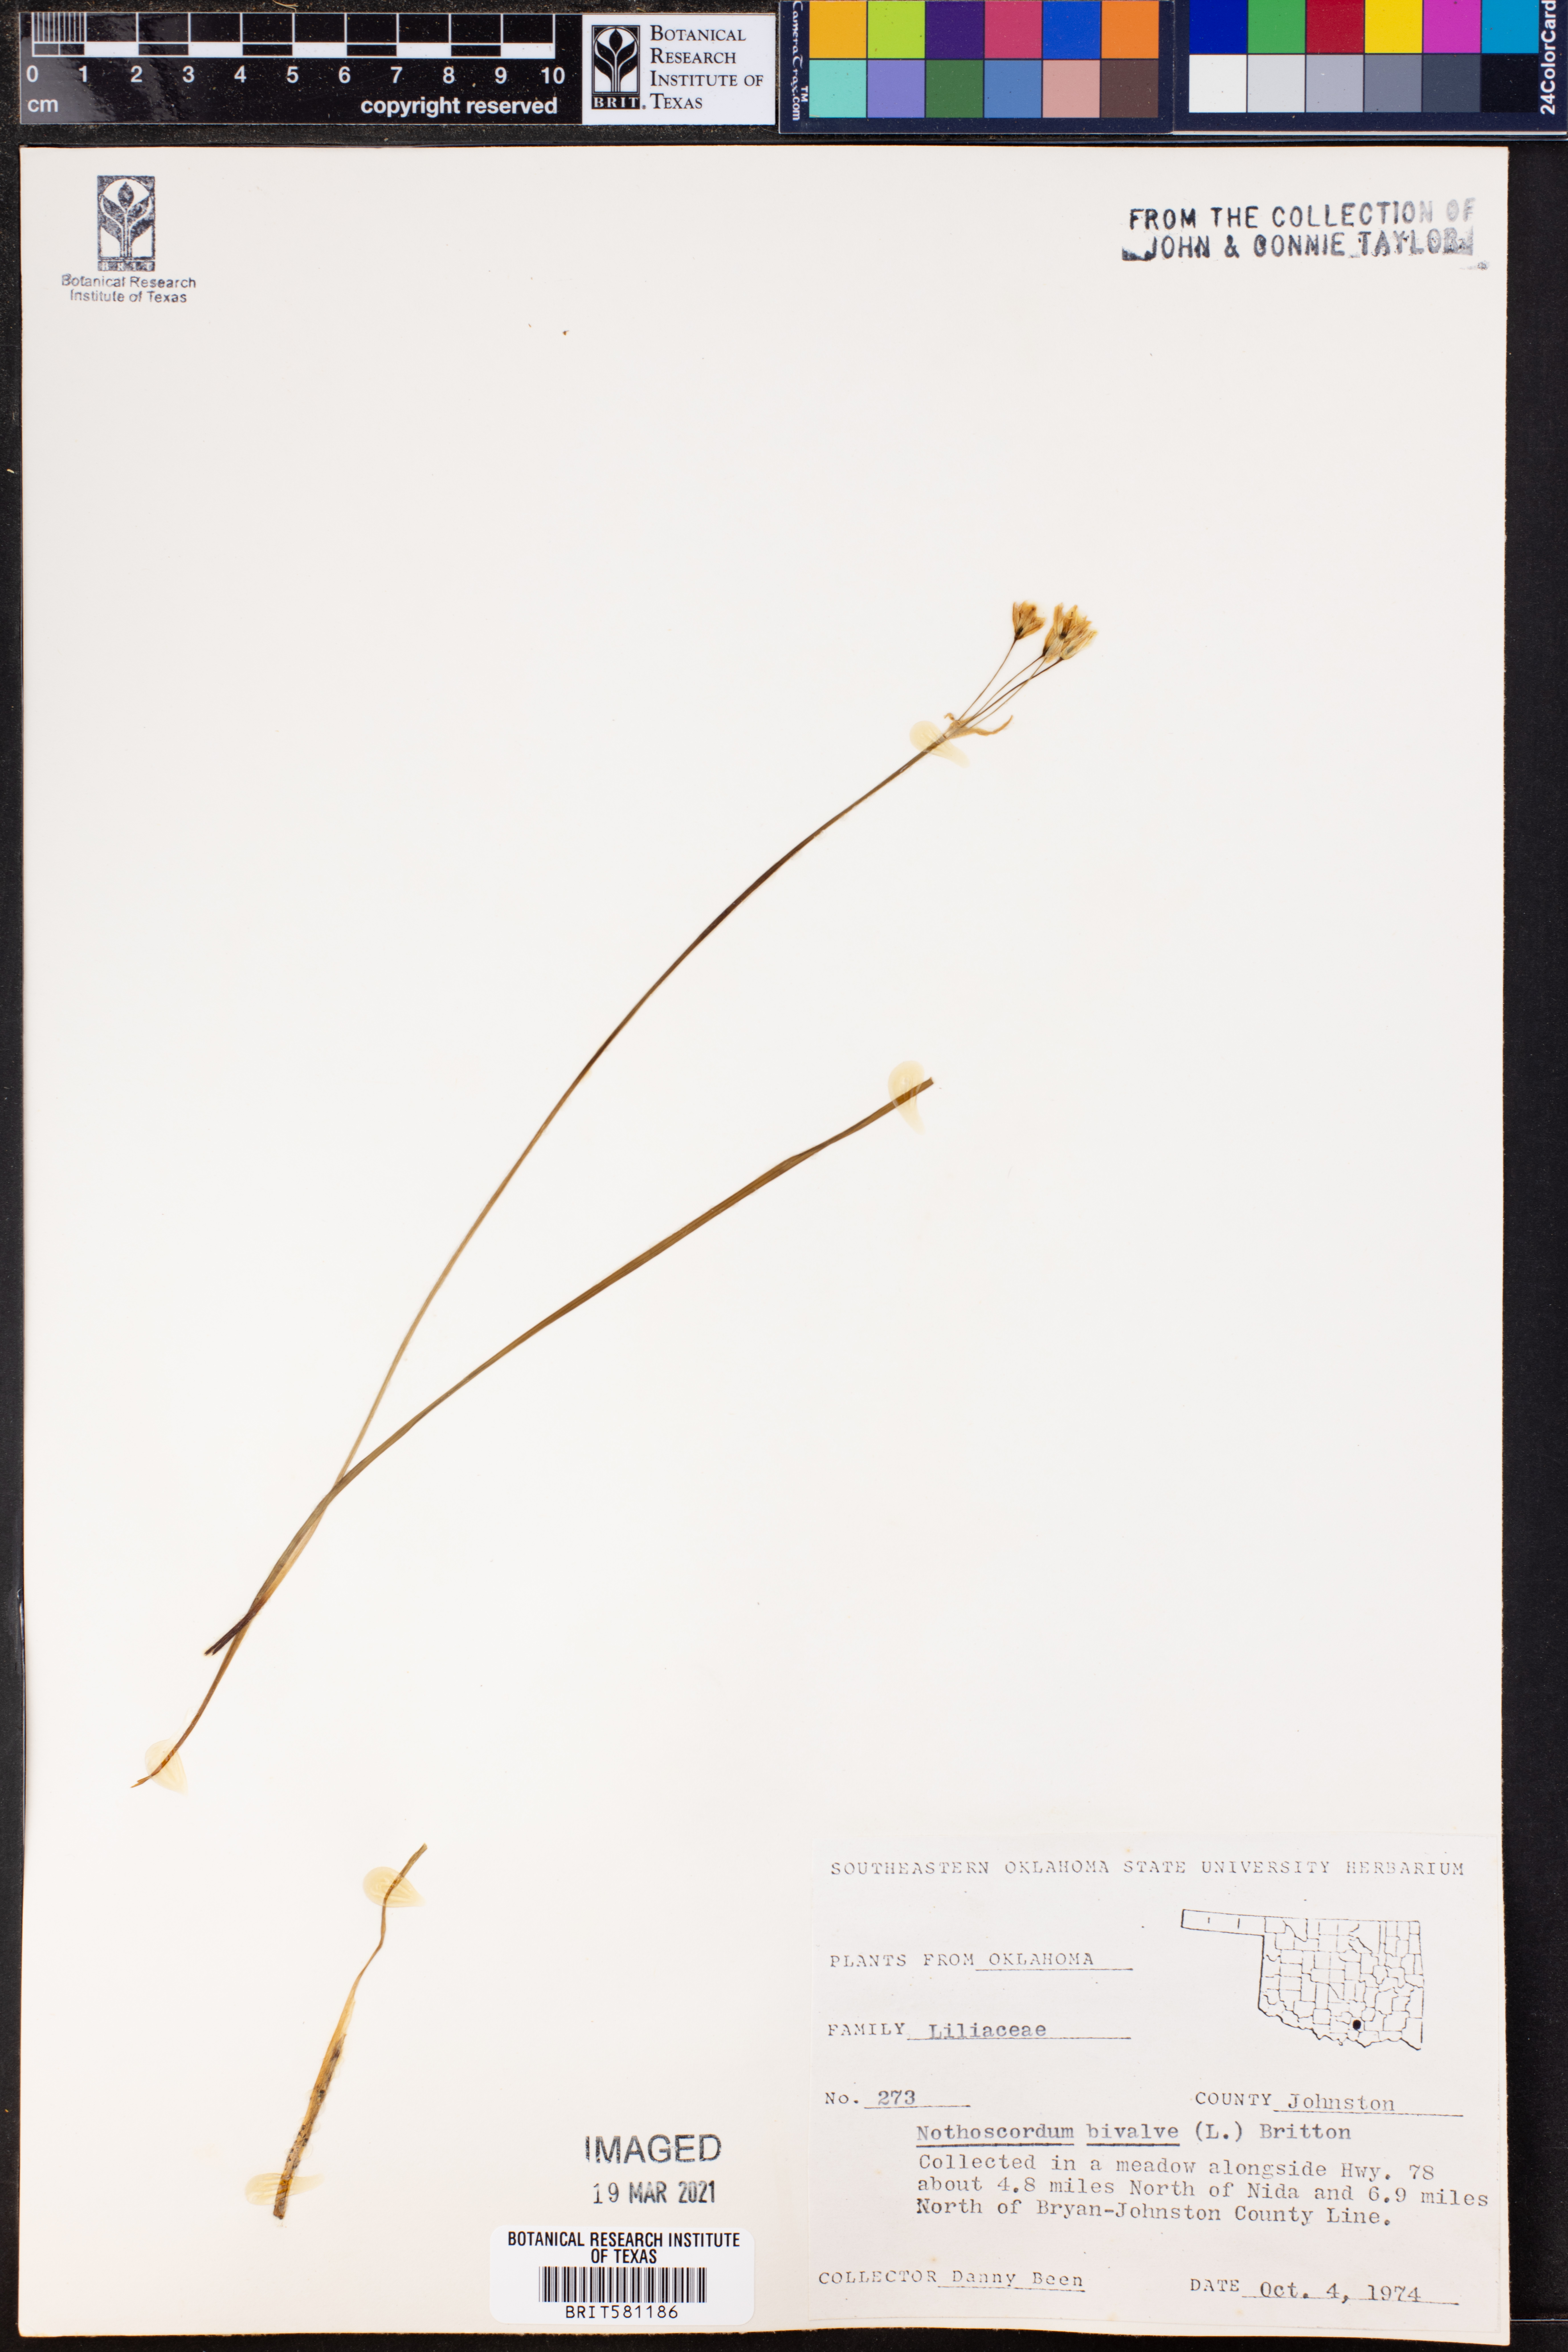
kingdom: Plantae
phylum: Tracheophyta
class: Liliopsida
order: Asparagales
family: Amaryllidaceae
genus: Nothoscordum
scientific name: Nothoscordum bivalve
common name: Crow-poison
